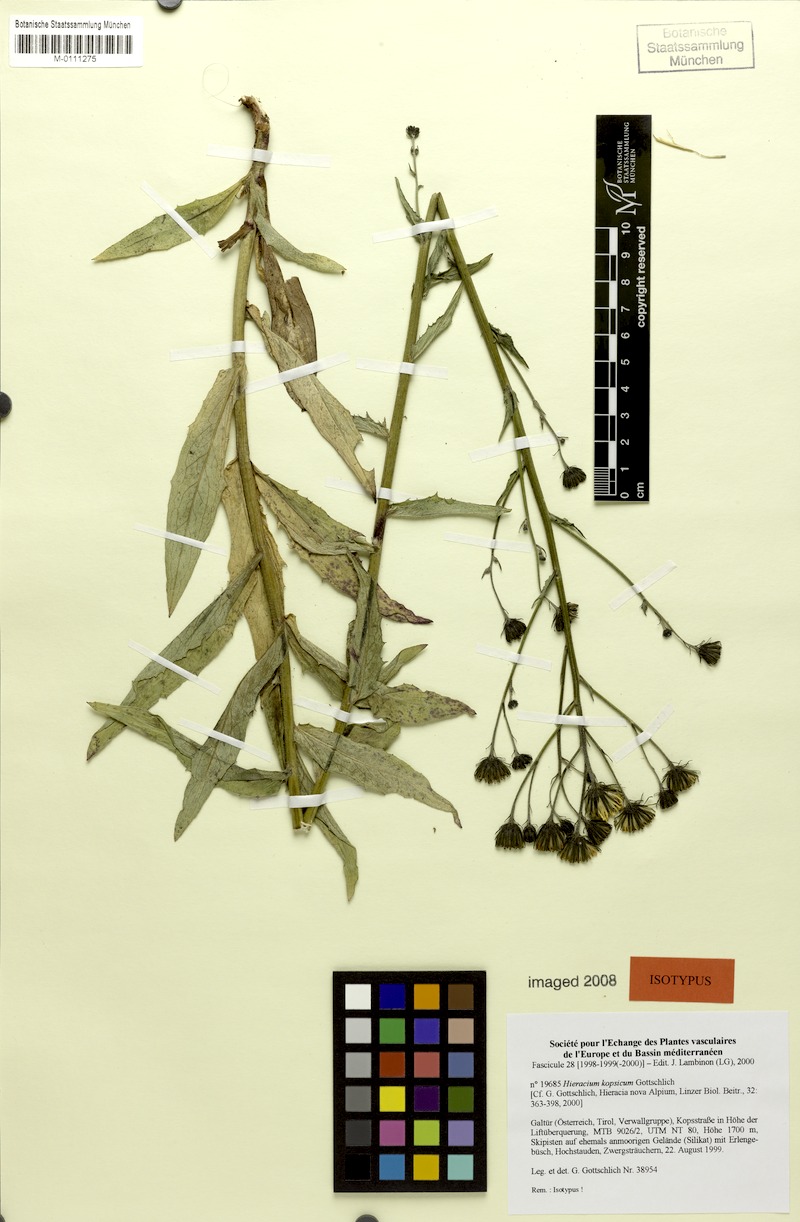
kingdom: Plantae
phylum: Tracheophyta
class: Magnoliopsida
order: Asterales
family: Asteraceae
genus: Hieracium
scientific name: Hieracium kopsicum
